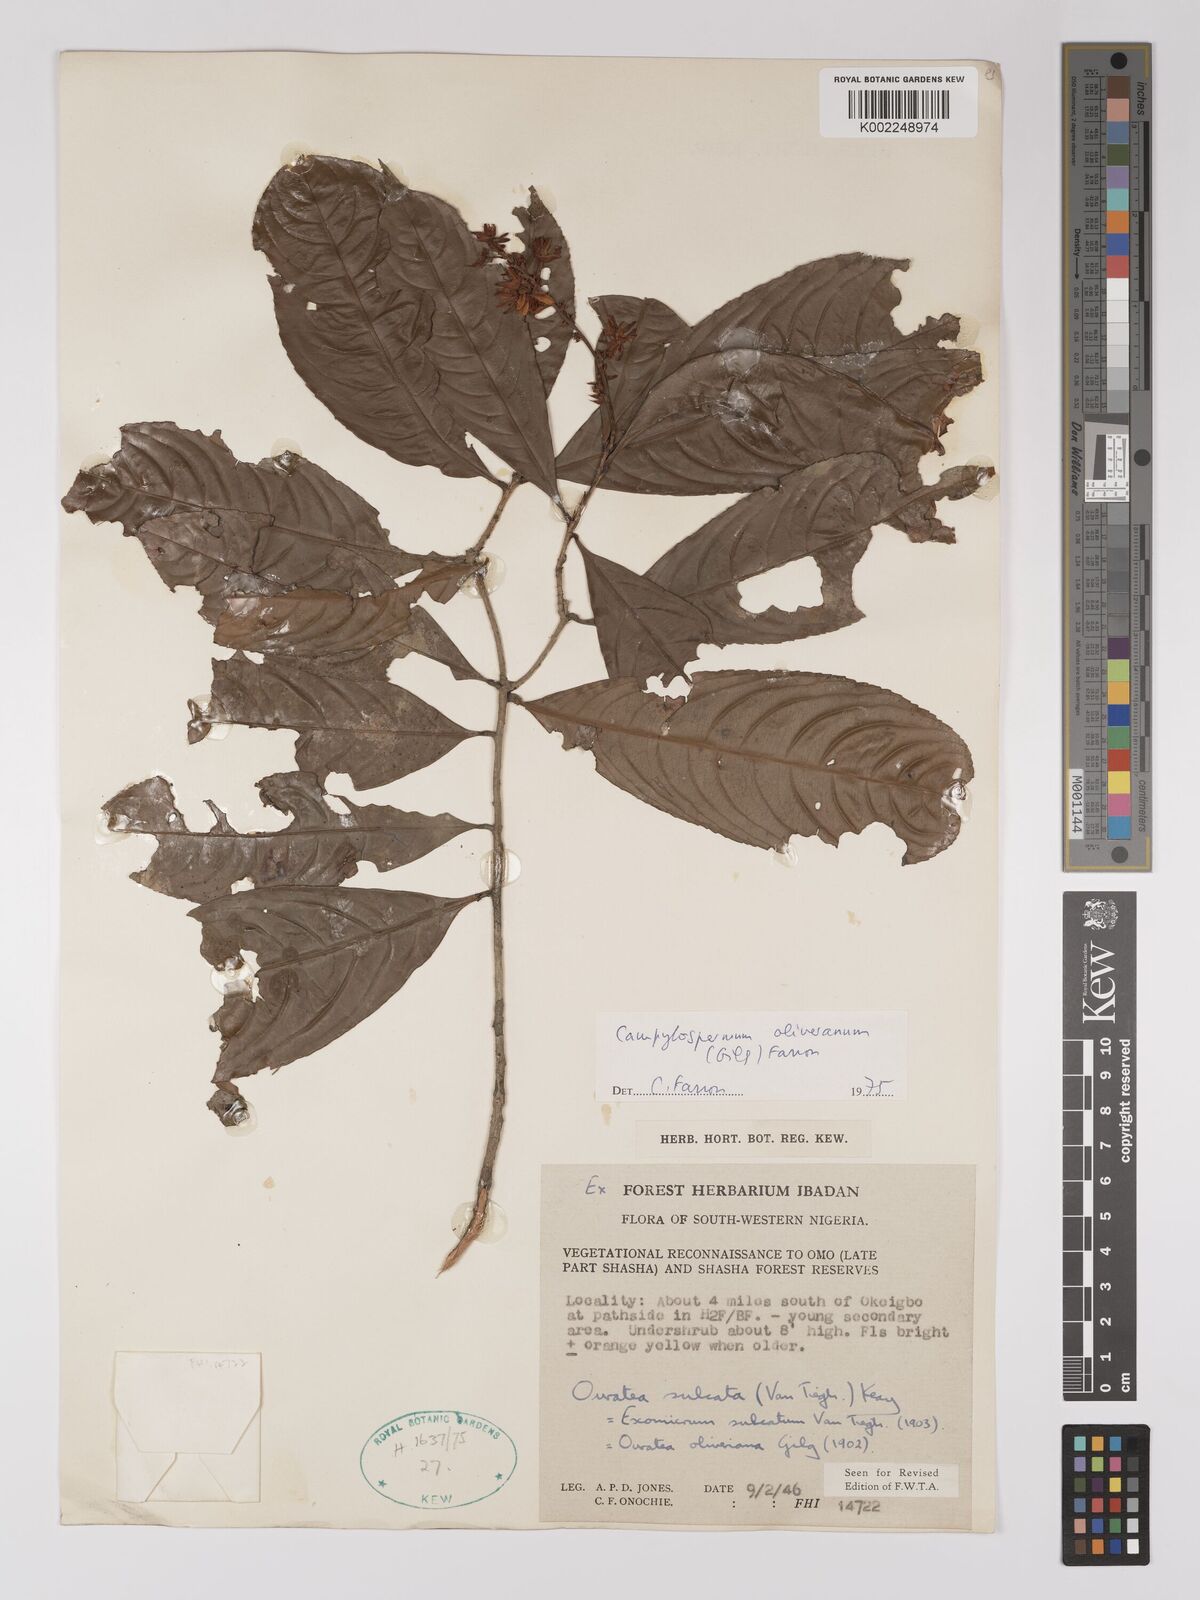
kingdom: Plantae
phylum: Tracheophyta
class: Magnoliopsida
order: Malpighiales
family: Ochnaceae
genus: Campylospermum
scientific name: Campylospermum oliverianum
